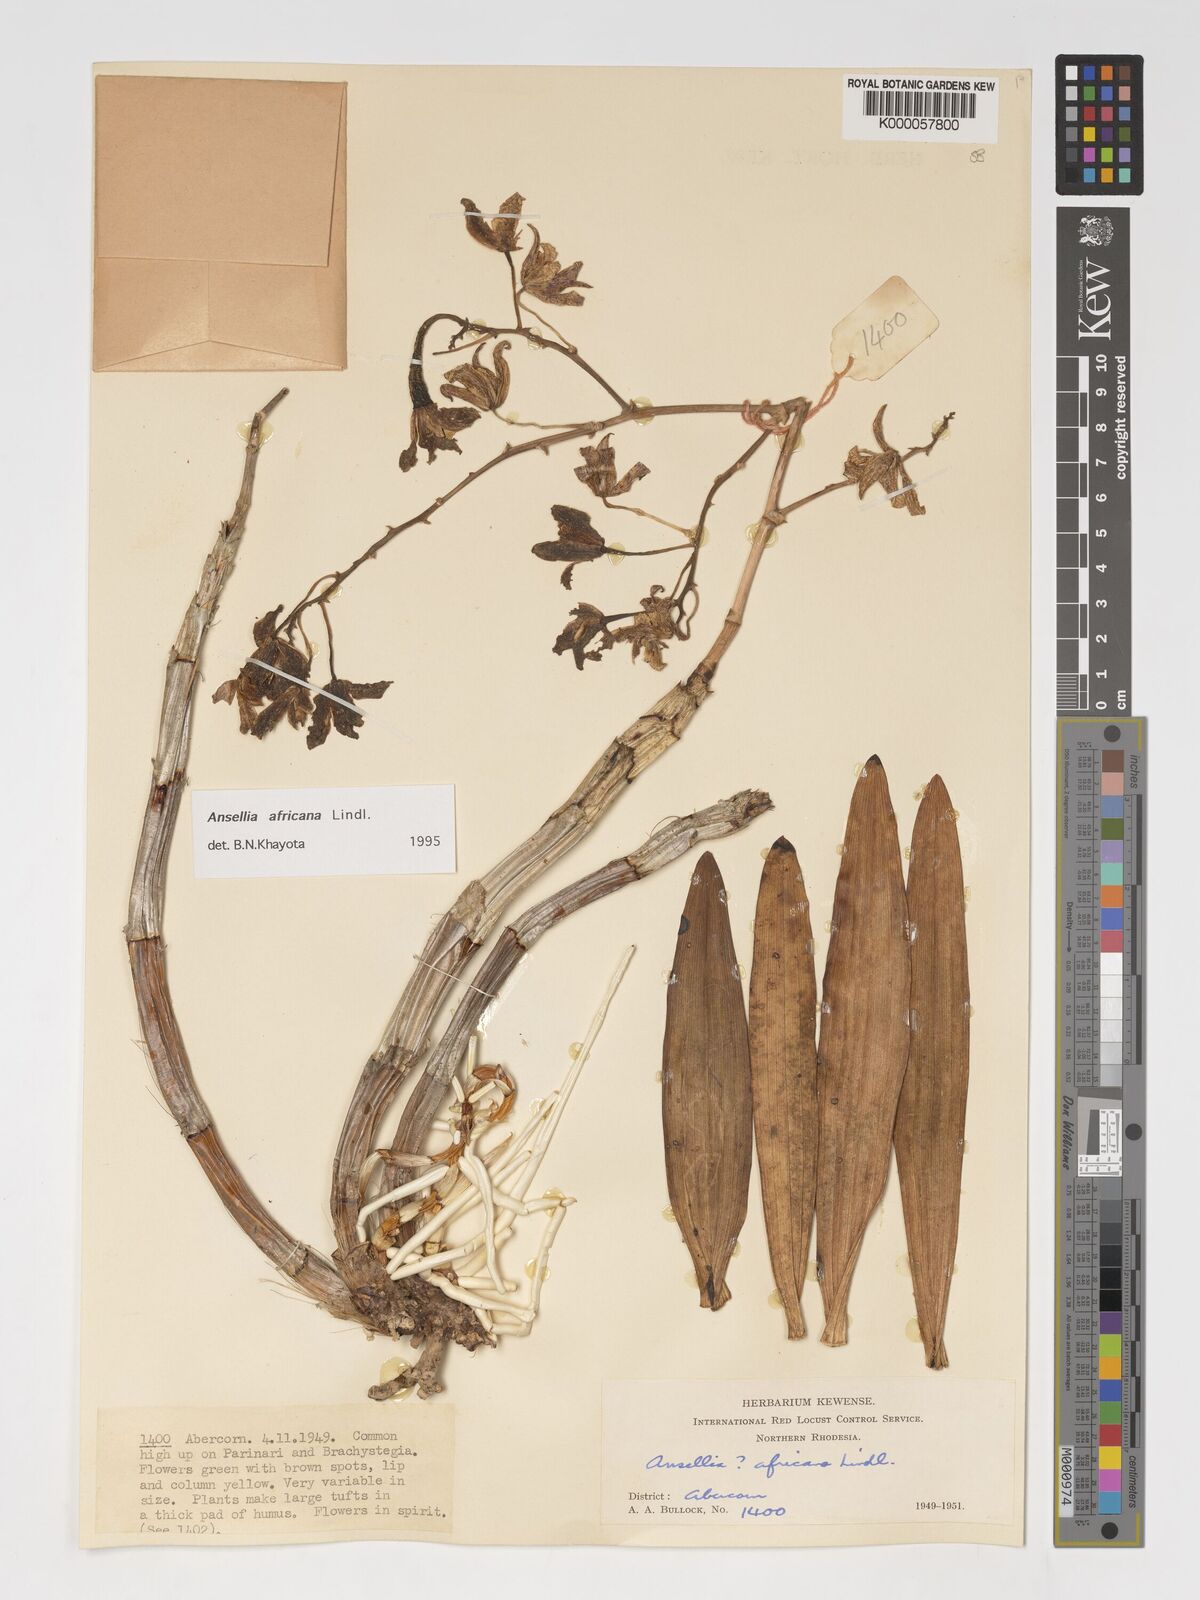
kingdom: Plantae
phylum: Tracheophyta
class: Liliopsida
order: Asparagales
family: Orchidaceae
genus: Ansellia
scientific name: Ansellia africana
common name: African ansellia
